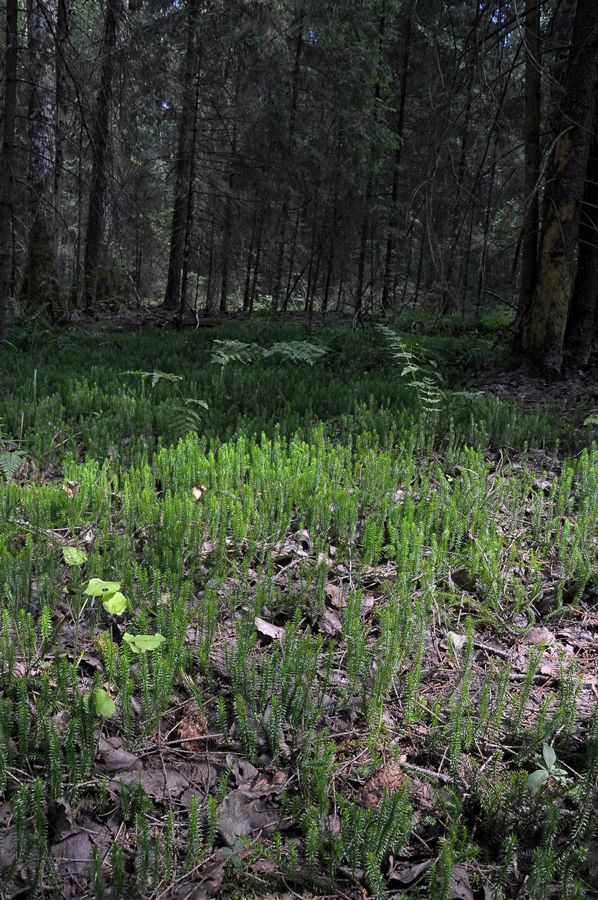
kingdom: Plantae
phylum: Tracheophyta
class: Lycopodiopsida
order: Lycopodiales
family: Lycopodiaceae
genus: Spinulum
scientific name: Spinulum annotinum
